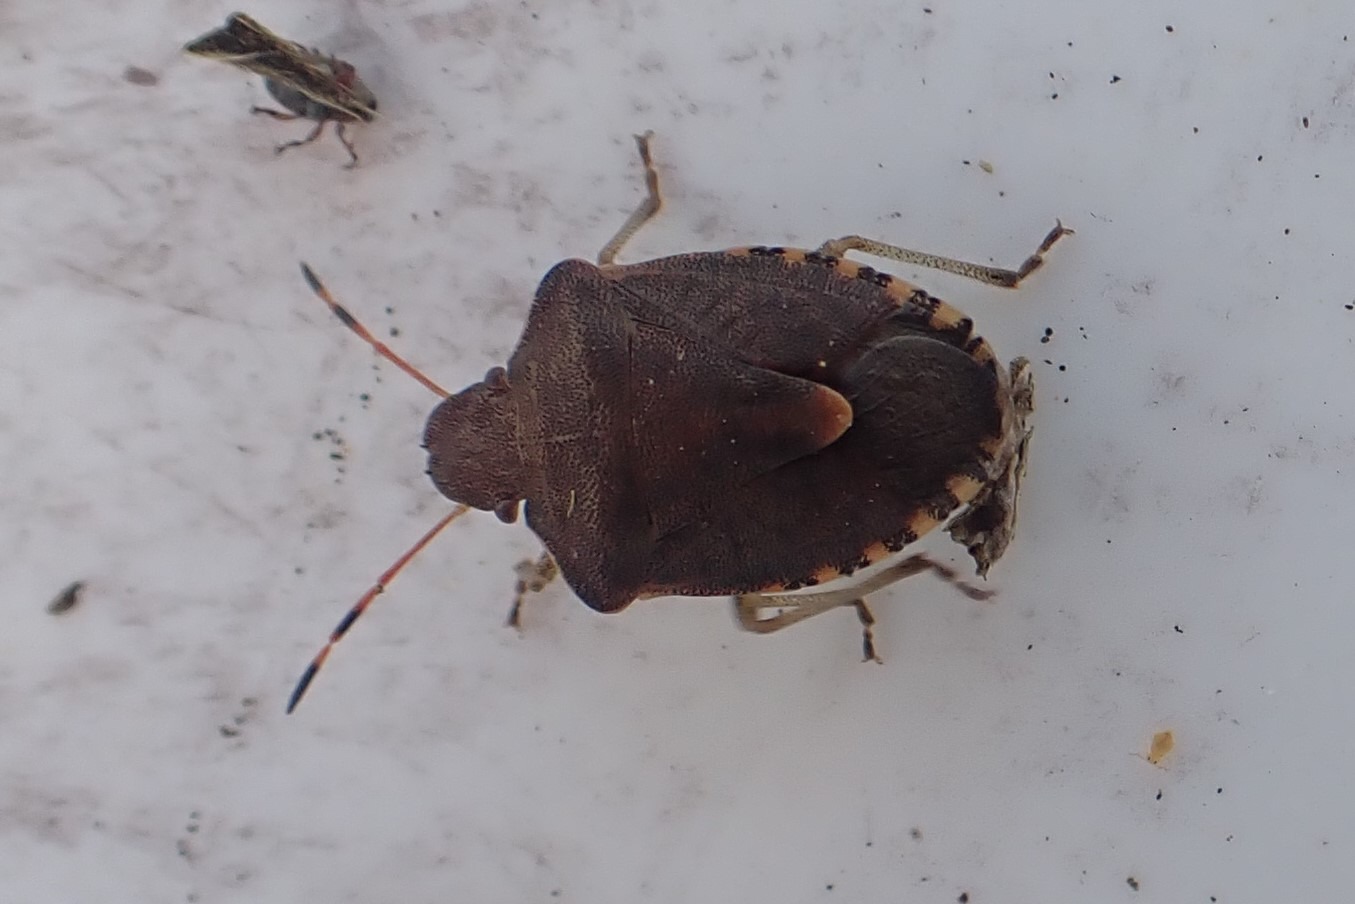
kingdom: Animalia
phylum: Arthropoda
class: Insecta
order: Hemiptera
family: Pentatomidae
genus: Holcostethus
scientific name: Holcostethus strictus
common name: Lille bærtæge
